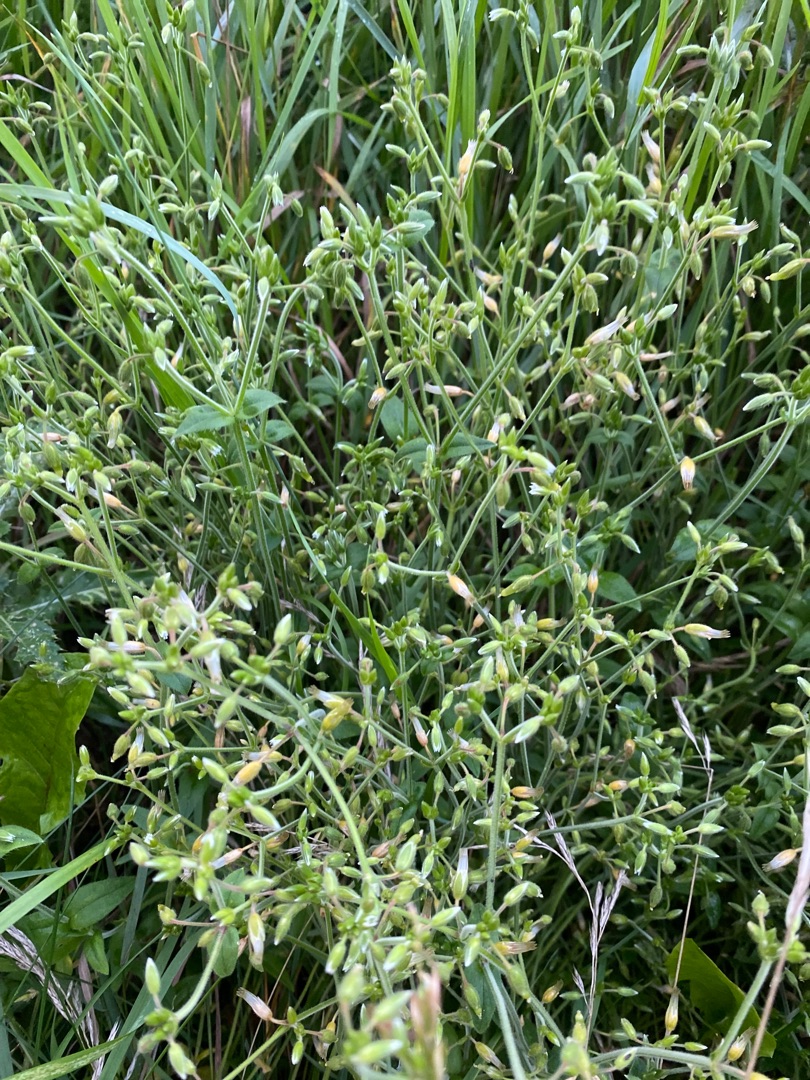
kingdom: Plantae
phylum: Tracheophyta
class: Magnoliopsida
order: Caryophyllales
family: Caryophyllaceae
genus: Cerastium
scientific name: Cerastium fontanum
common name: Almindelig hønsetarm
